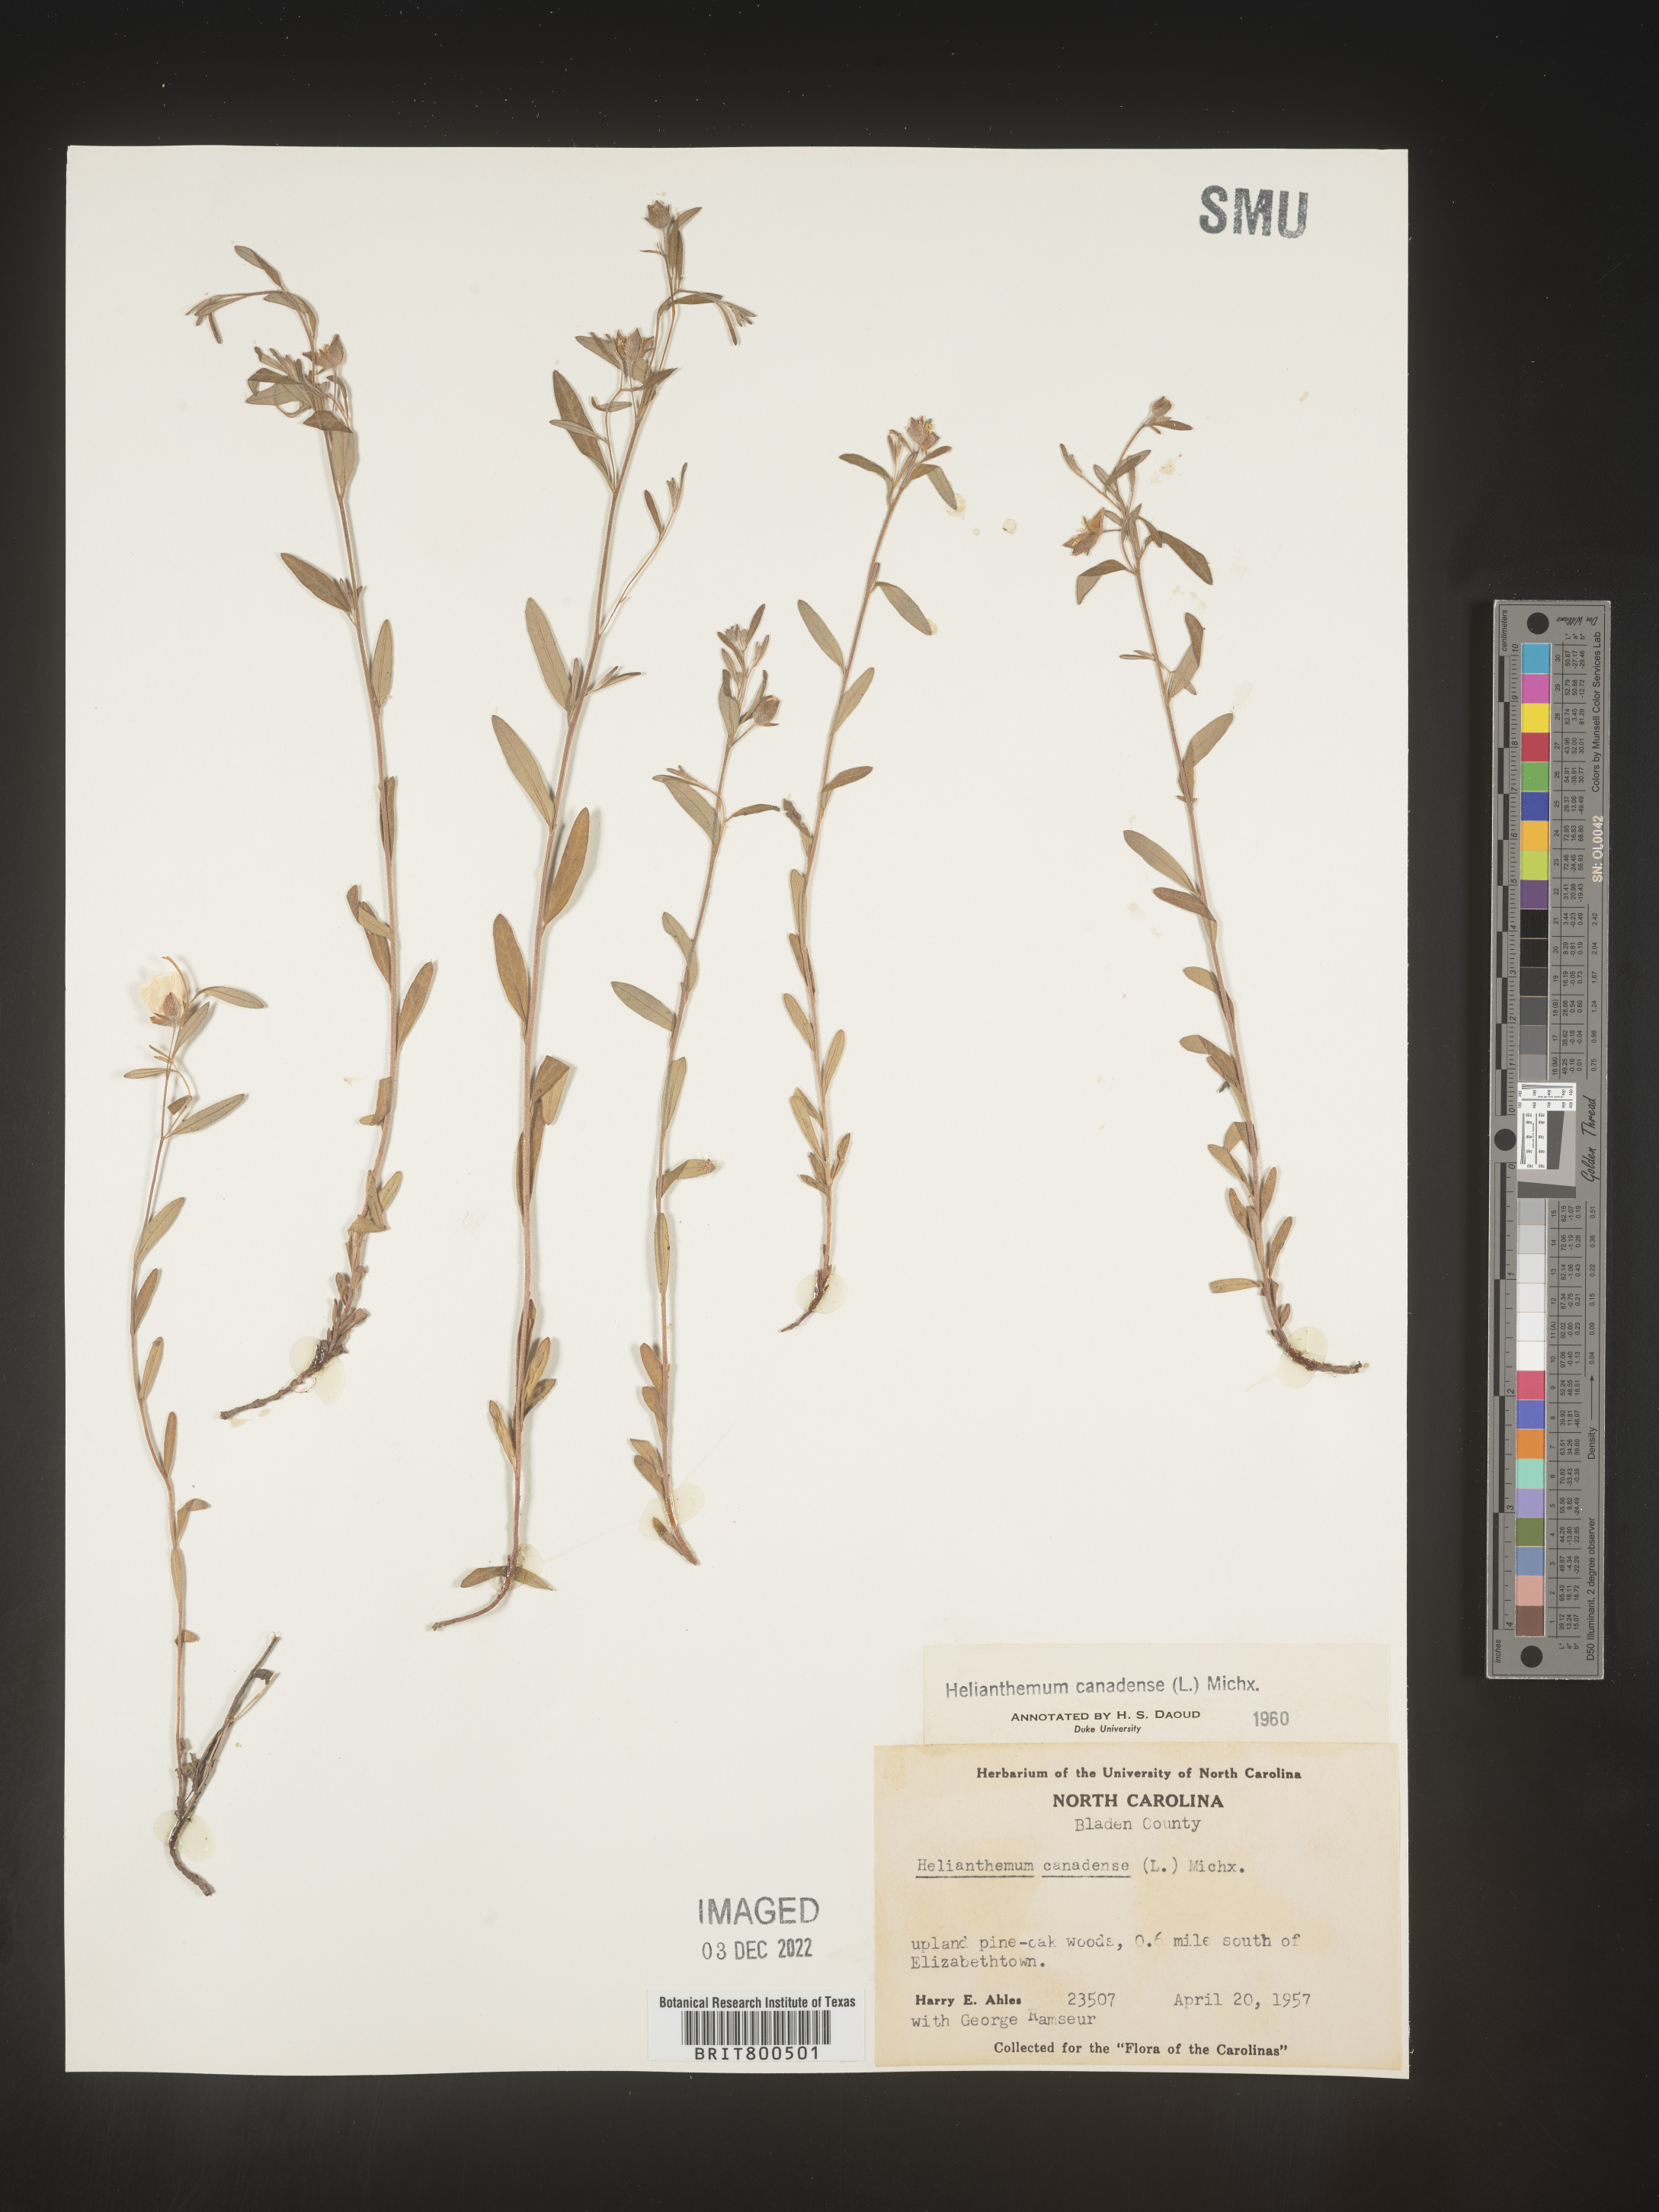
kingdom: Plantae
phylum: Tracheophyta
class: Magnoliopsida
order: Malvales
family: Cistaceae
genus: Crocanthemum
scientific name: Crocanthemum canadense
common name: Canada frostweed
